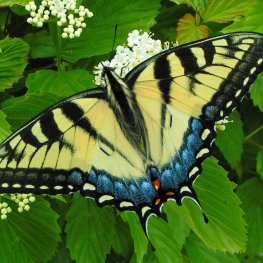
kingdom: Animalia
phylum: Arthropoda
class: Insecta
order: Lepidoptera
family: Papilionidae
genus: Pterourus
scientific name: Pterourus glaucus
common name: Eastern Tiger Swallowtail
